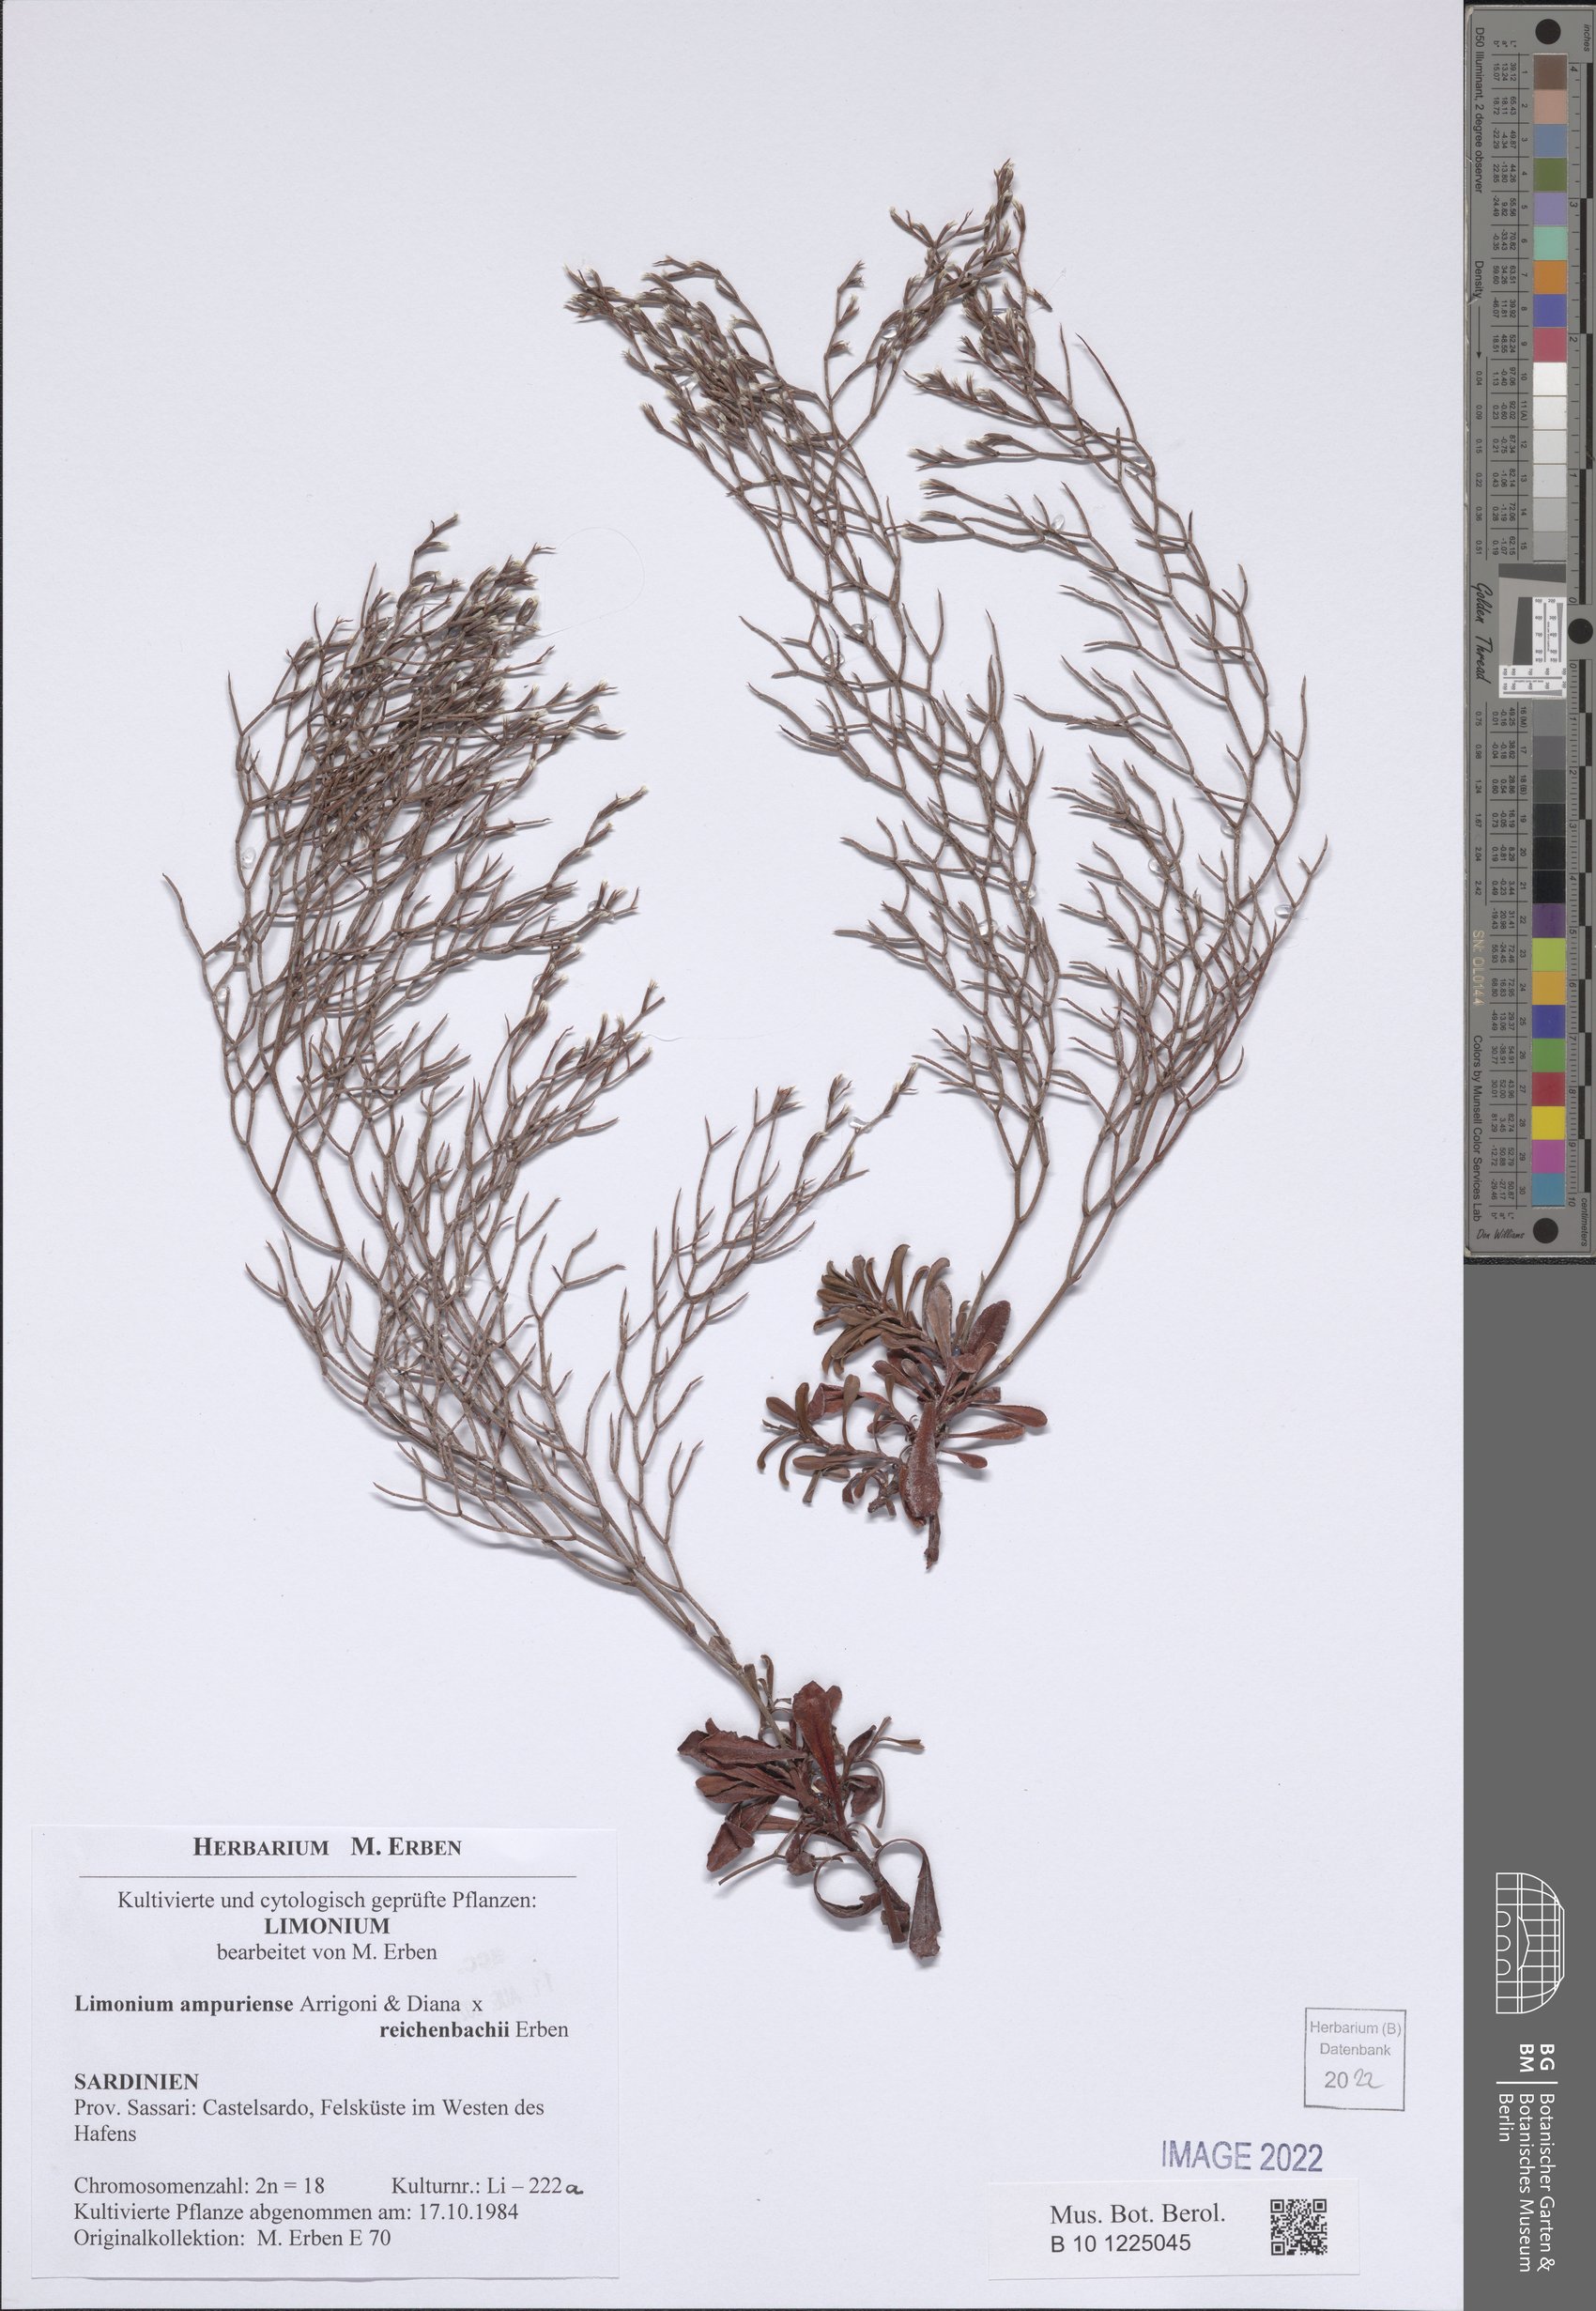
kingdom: Plantae
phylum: Tracheophyta
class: Magnoliopsida
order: Caryophyllales
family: Plumbaginaceae
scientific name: Plumbaginaceae
